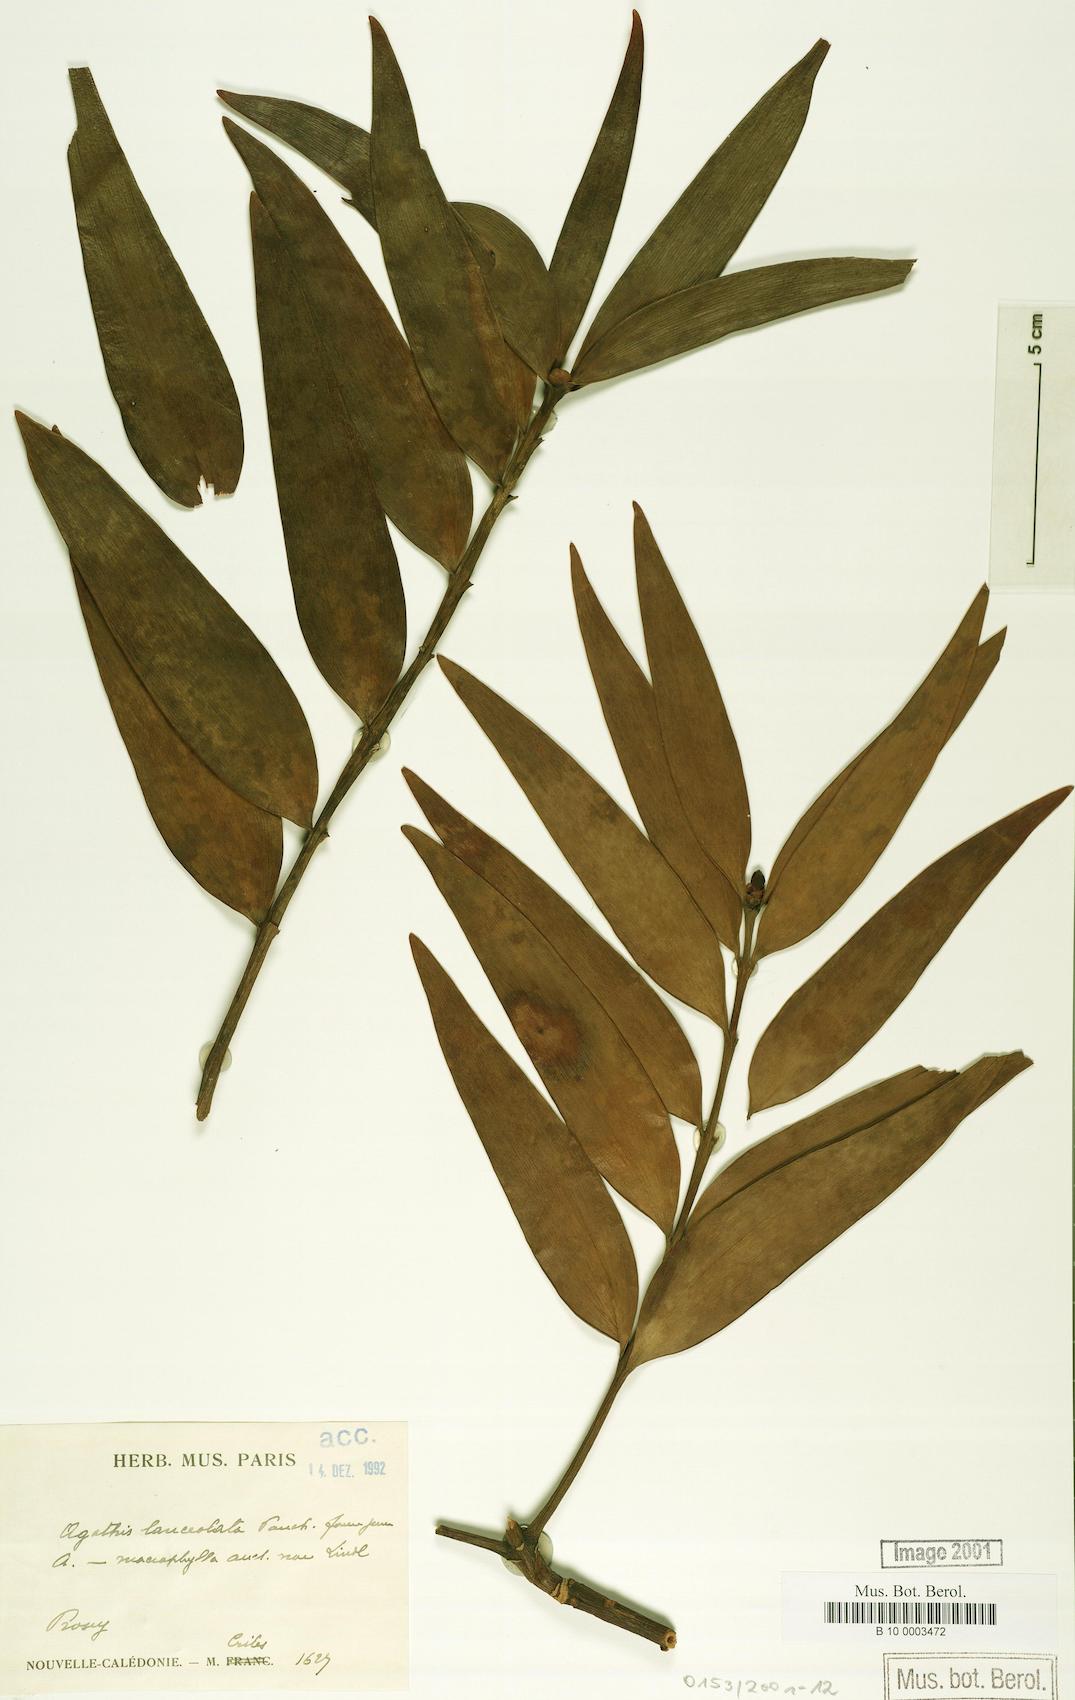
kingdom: Plantae
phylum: Tracheophyta
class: Pinopsida
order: Pinales
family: Araucariaceae
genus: Agathis
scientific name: Agathis lanceolata
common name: Koghis kauri
